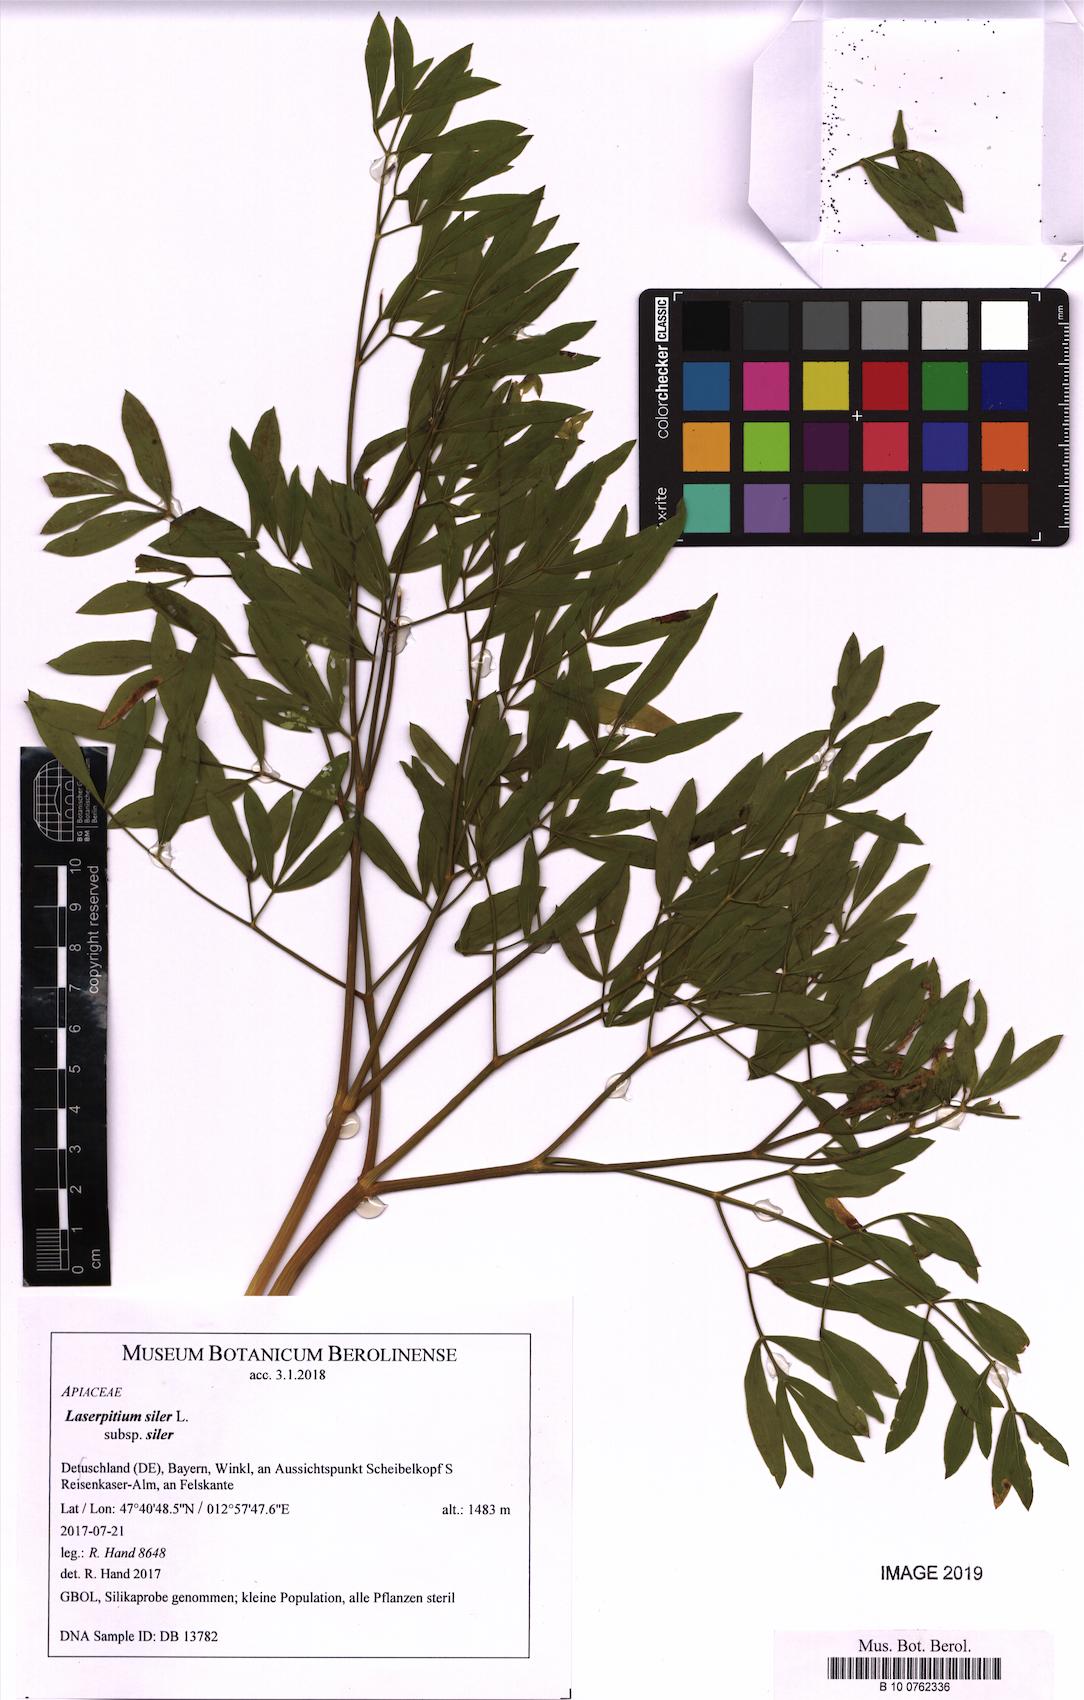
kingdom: Plantae
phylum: Tracheophyta
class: Magnoliopsida
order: Apiales
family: Apiaceae
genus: Siler
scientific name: Siler montanum
